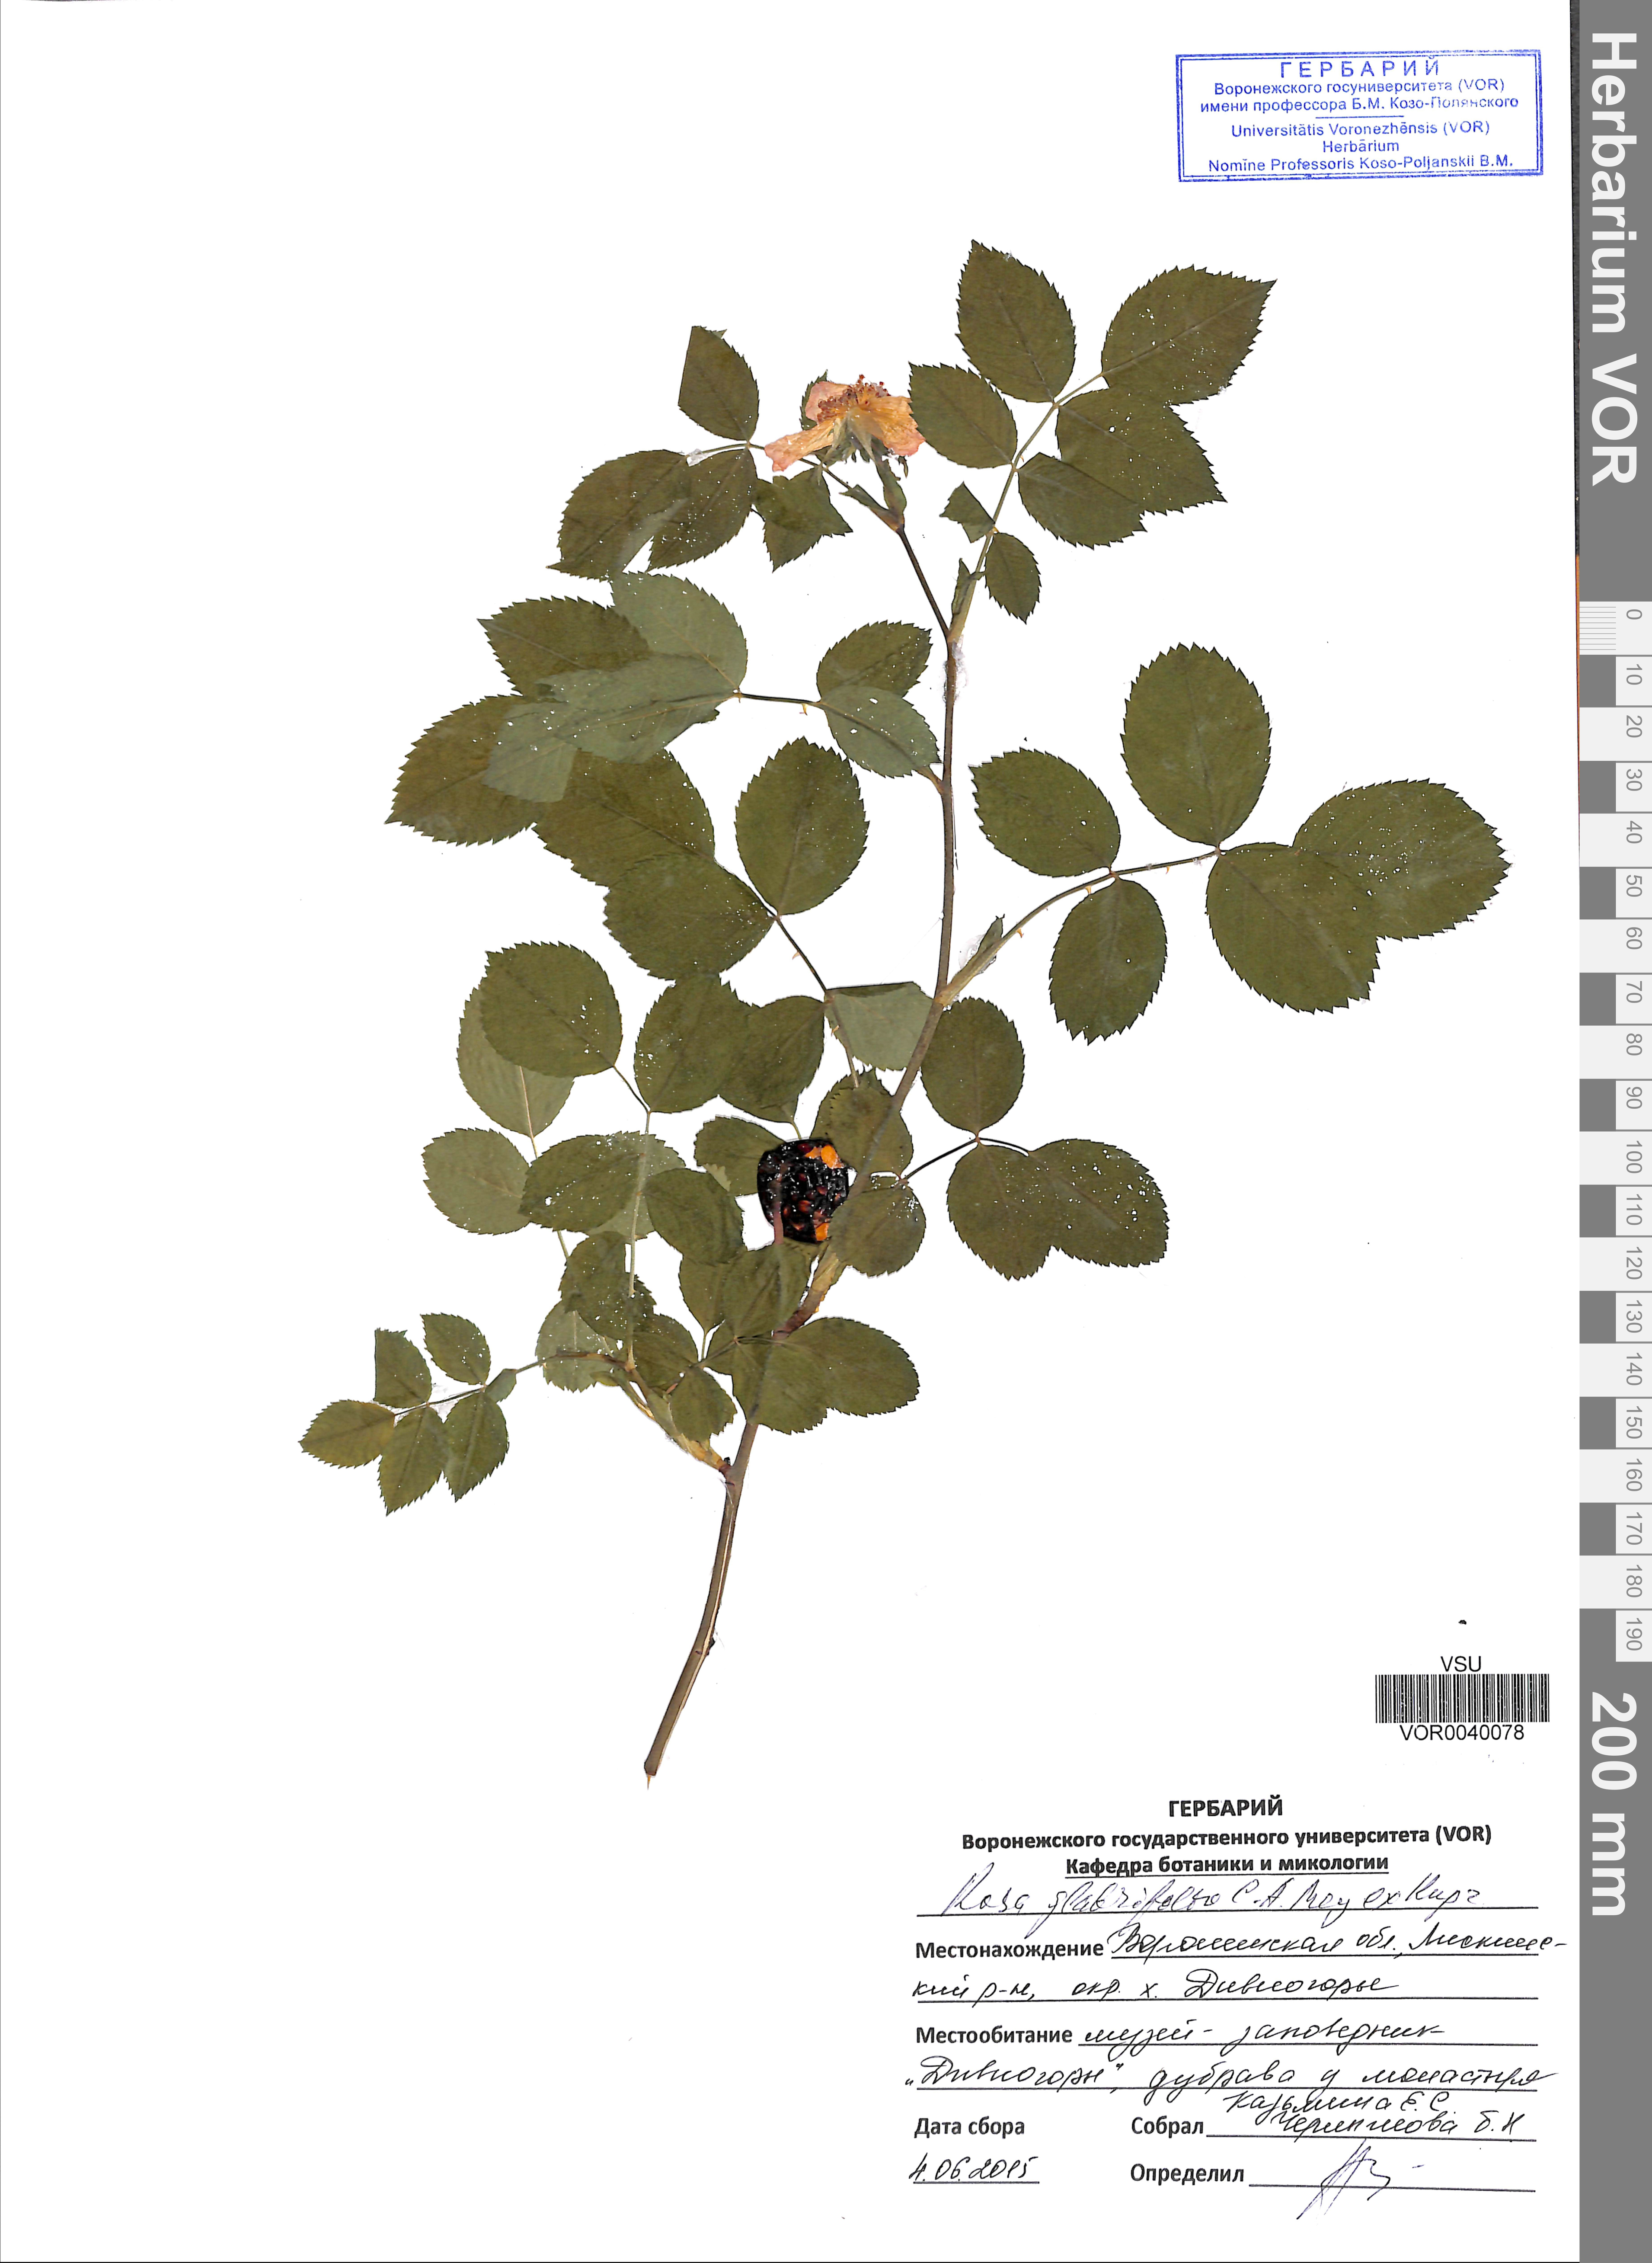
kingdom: Plantae
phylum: Tracheophyta
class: Magnoliopsida
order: Rosales
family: Rosaceae
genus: Rosa
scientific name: Rosa glabrifolia
